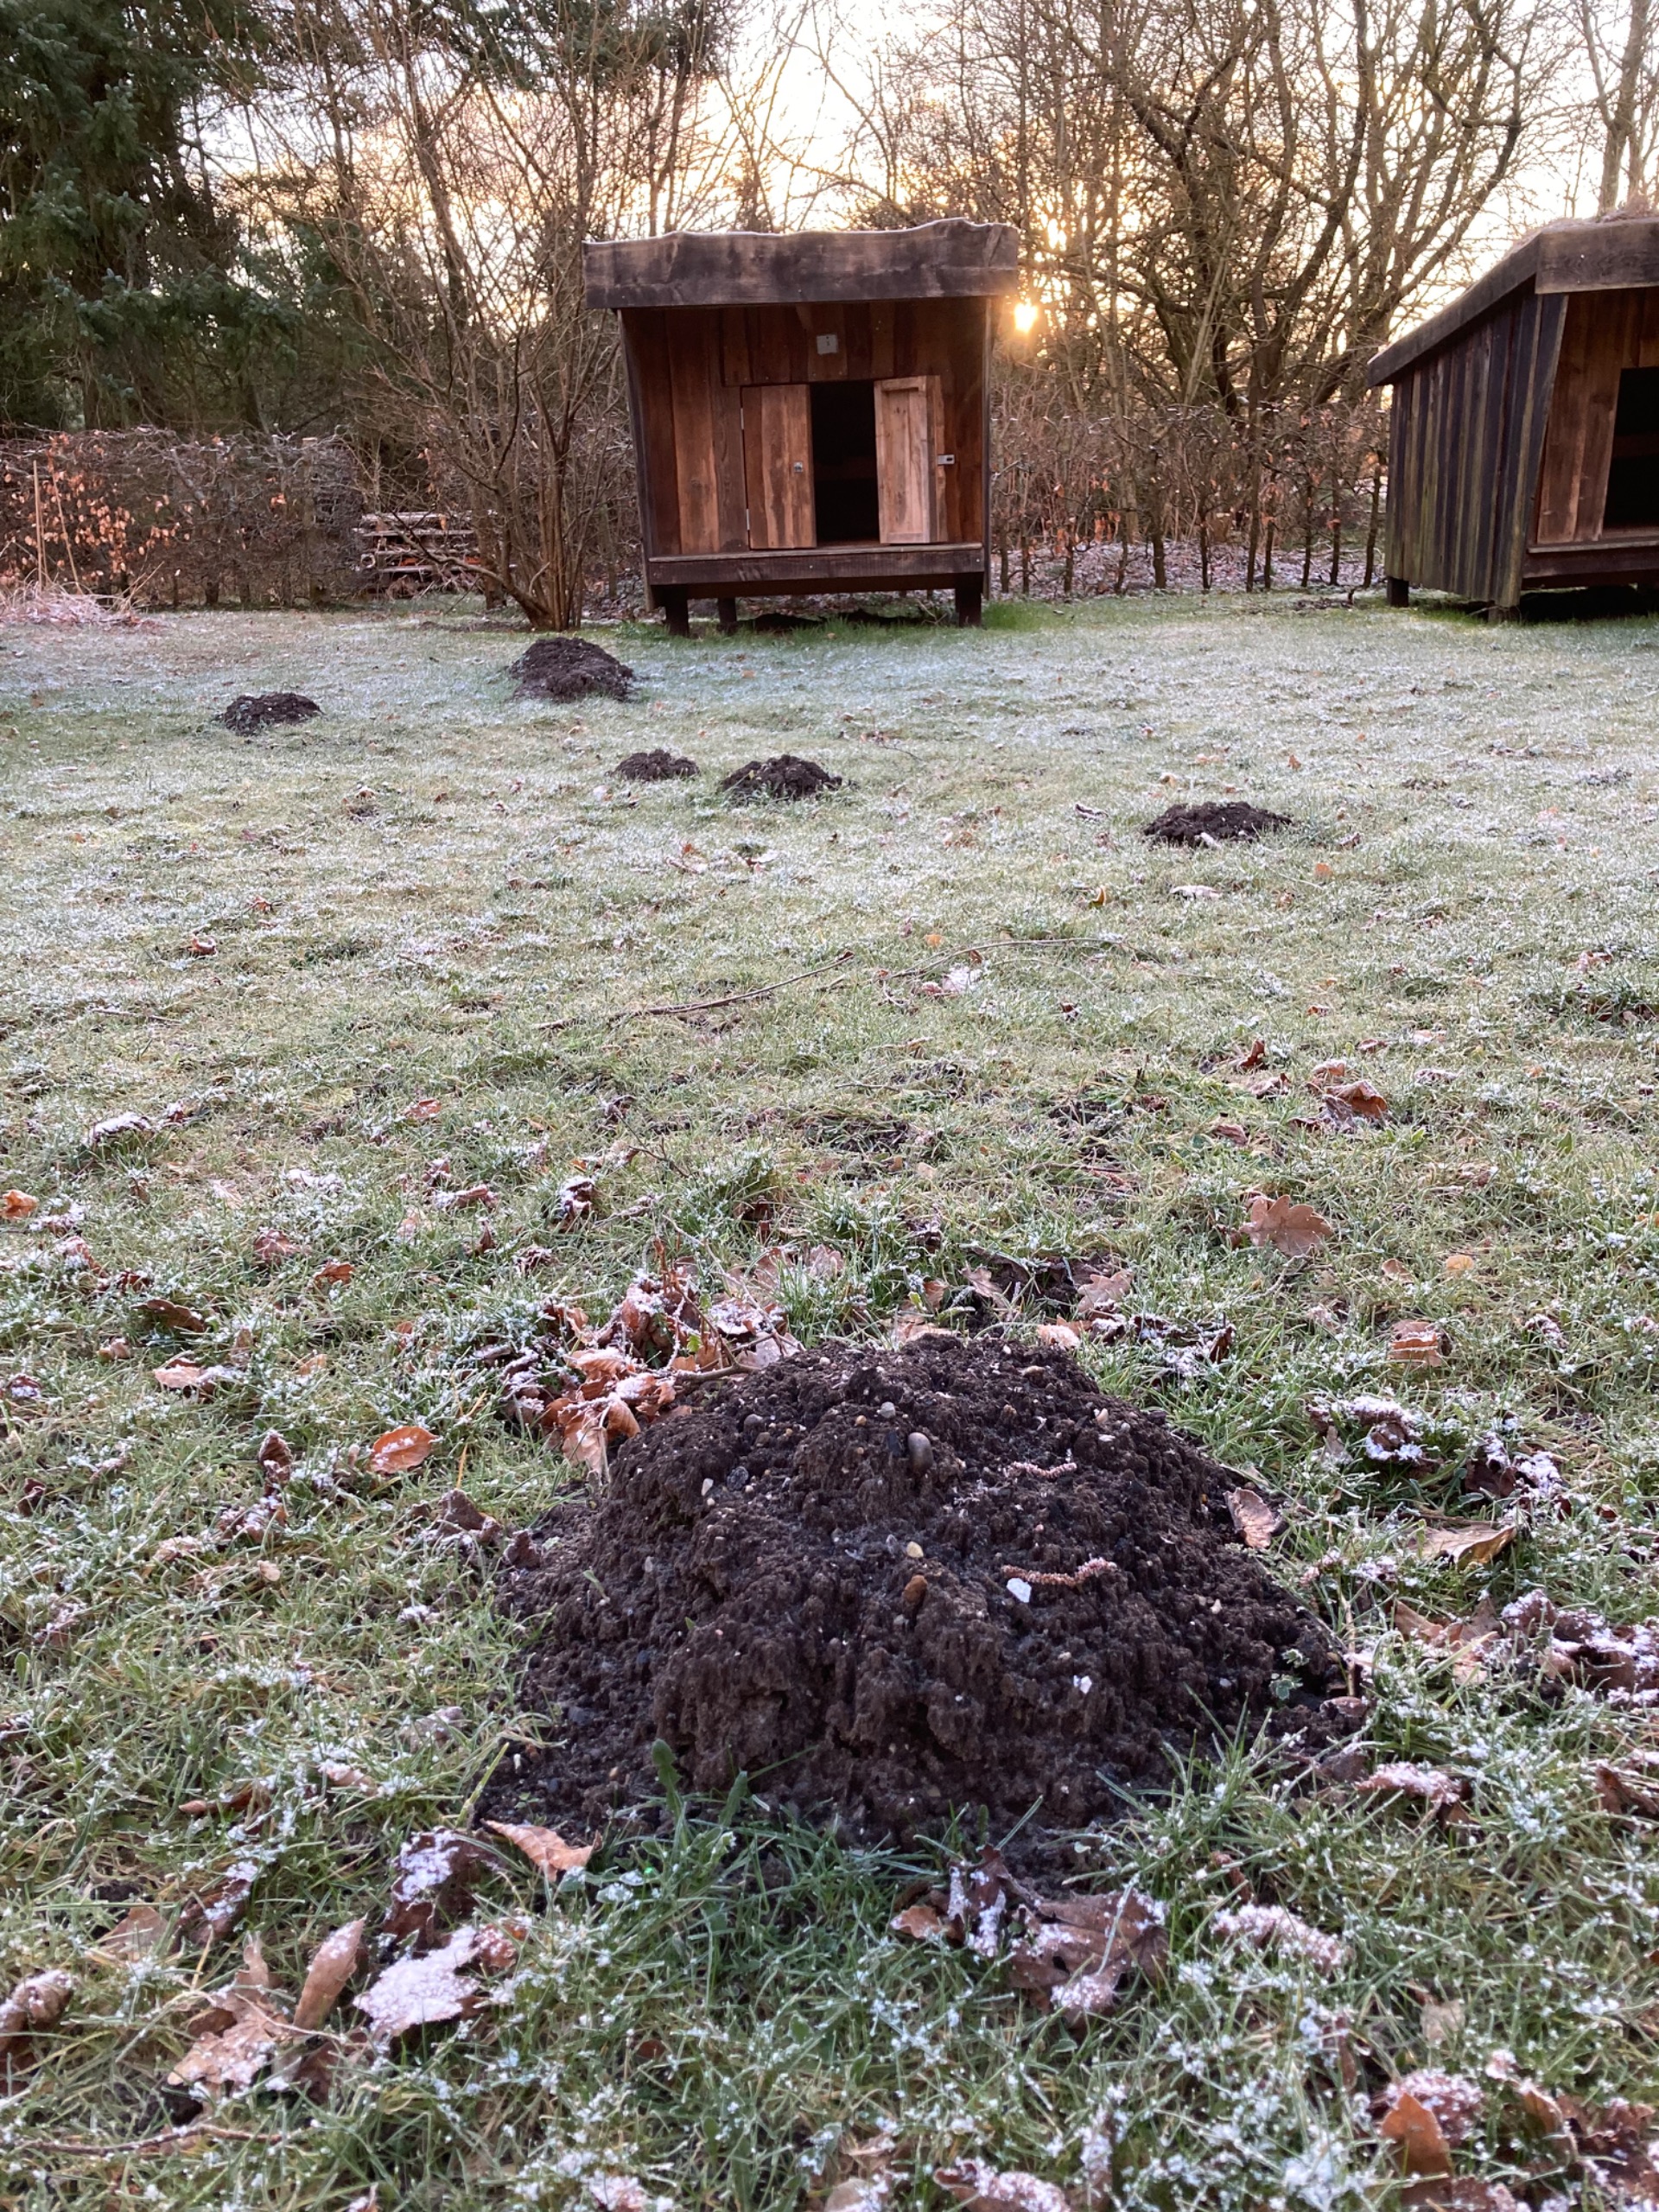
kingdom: Animalia
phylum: Chordata
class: Mammalia
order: Soricomorpha
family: Talpidae
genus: Talpa
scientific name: Talpa europaea
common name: Muldvarp
